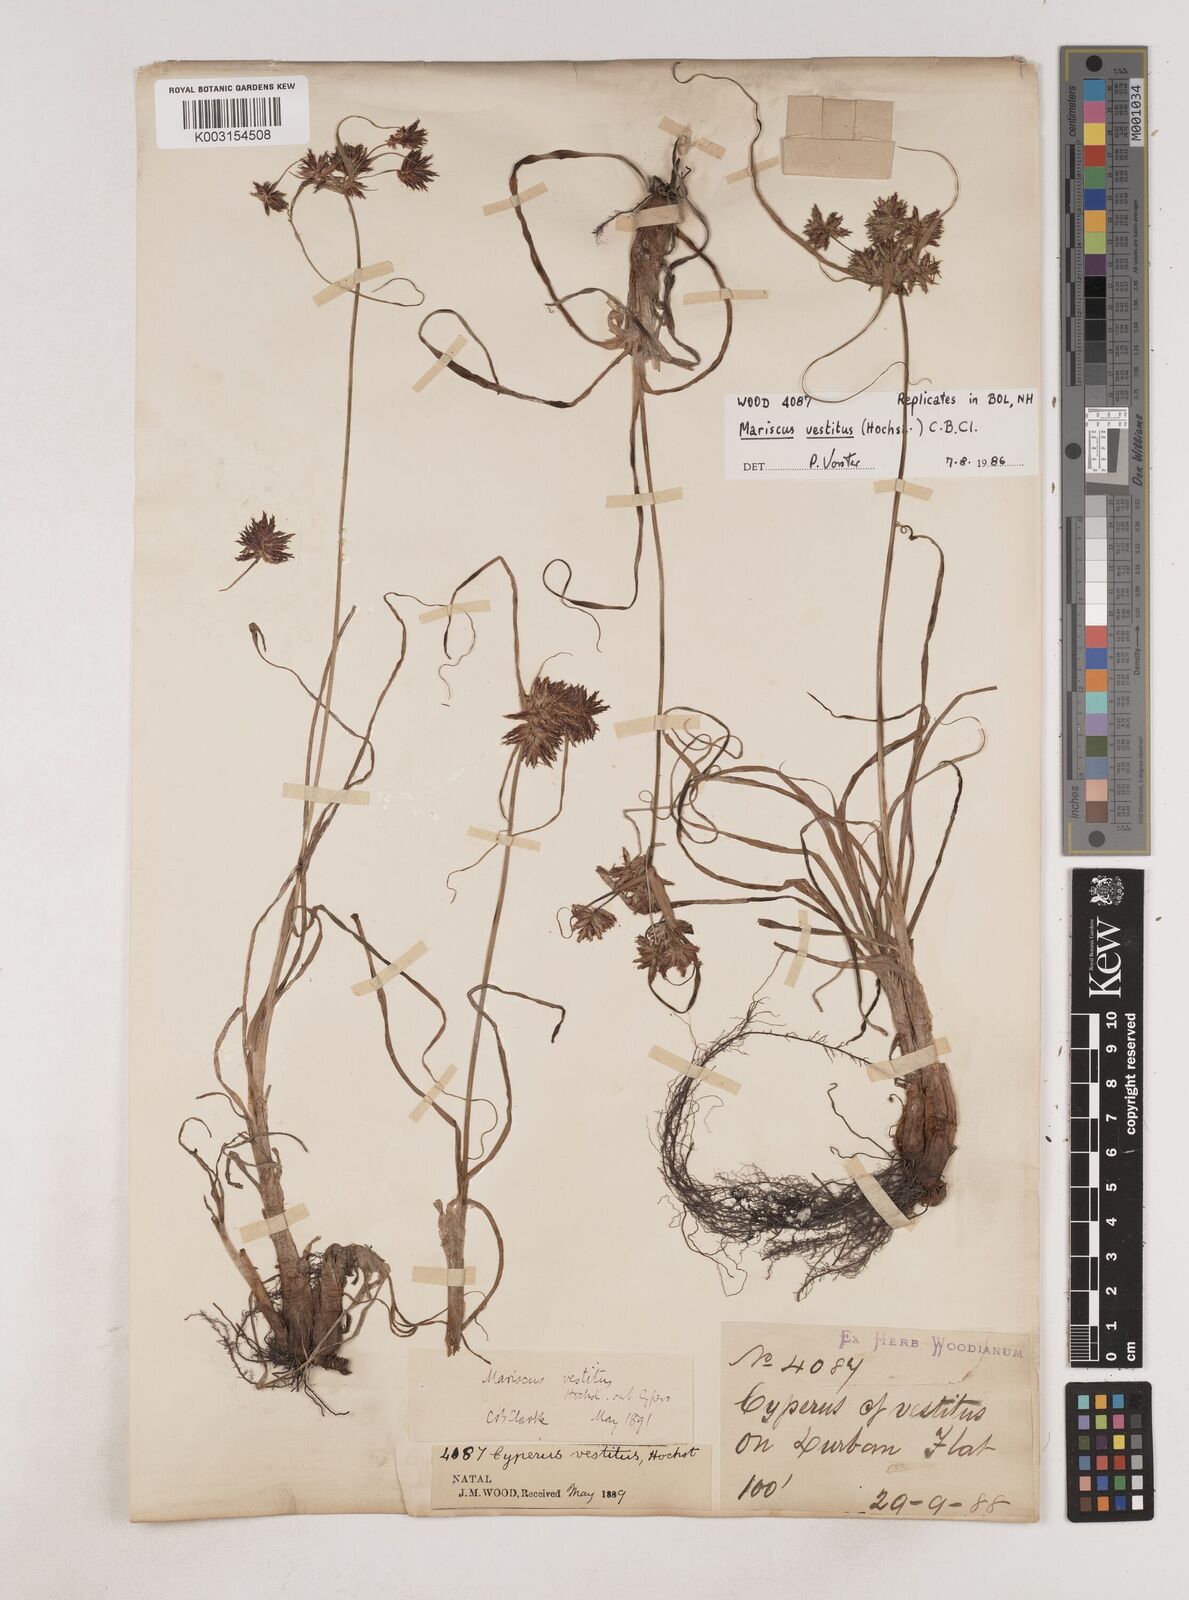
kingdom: Plantae
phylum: Tracheophyta
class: Liliopsida
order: Poales
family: Cyperaceae
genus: Cyperus
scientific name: Cyperus vestitus
